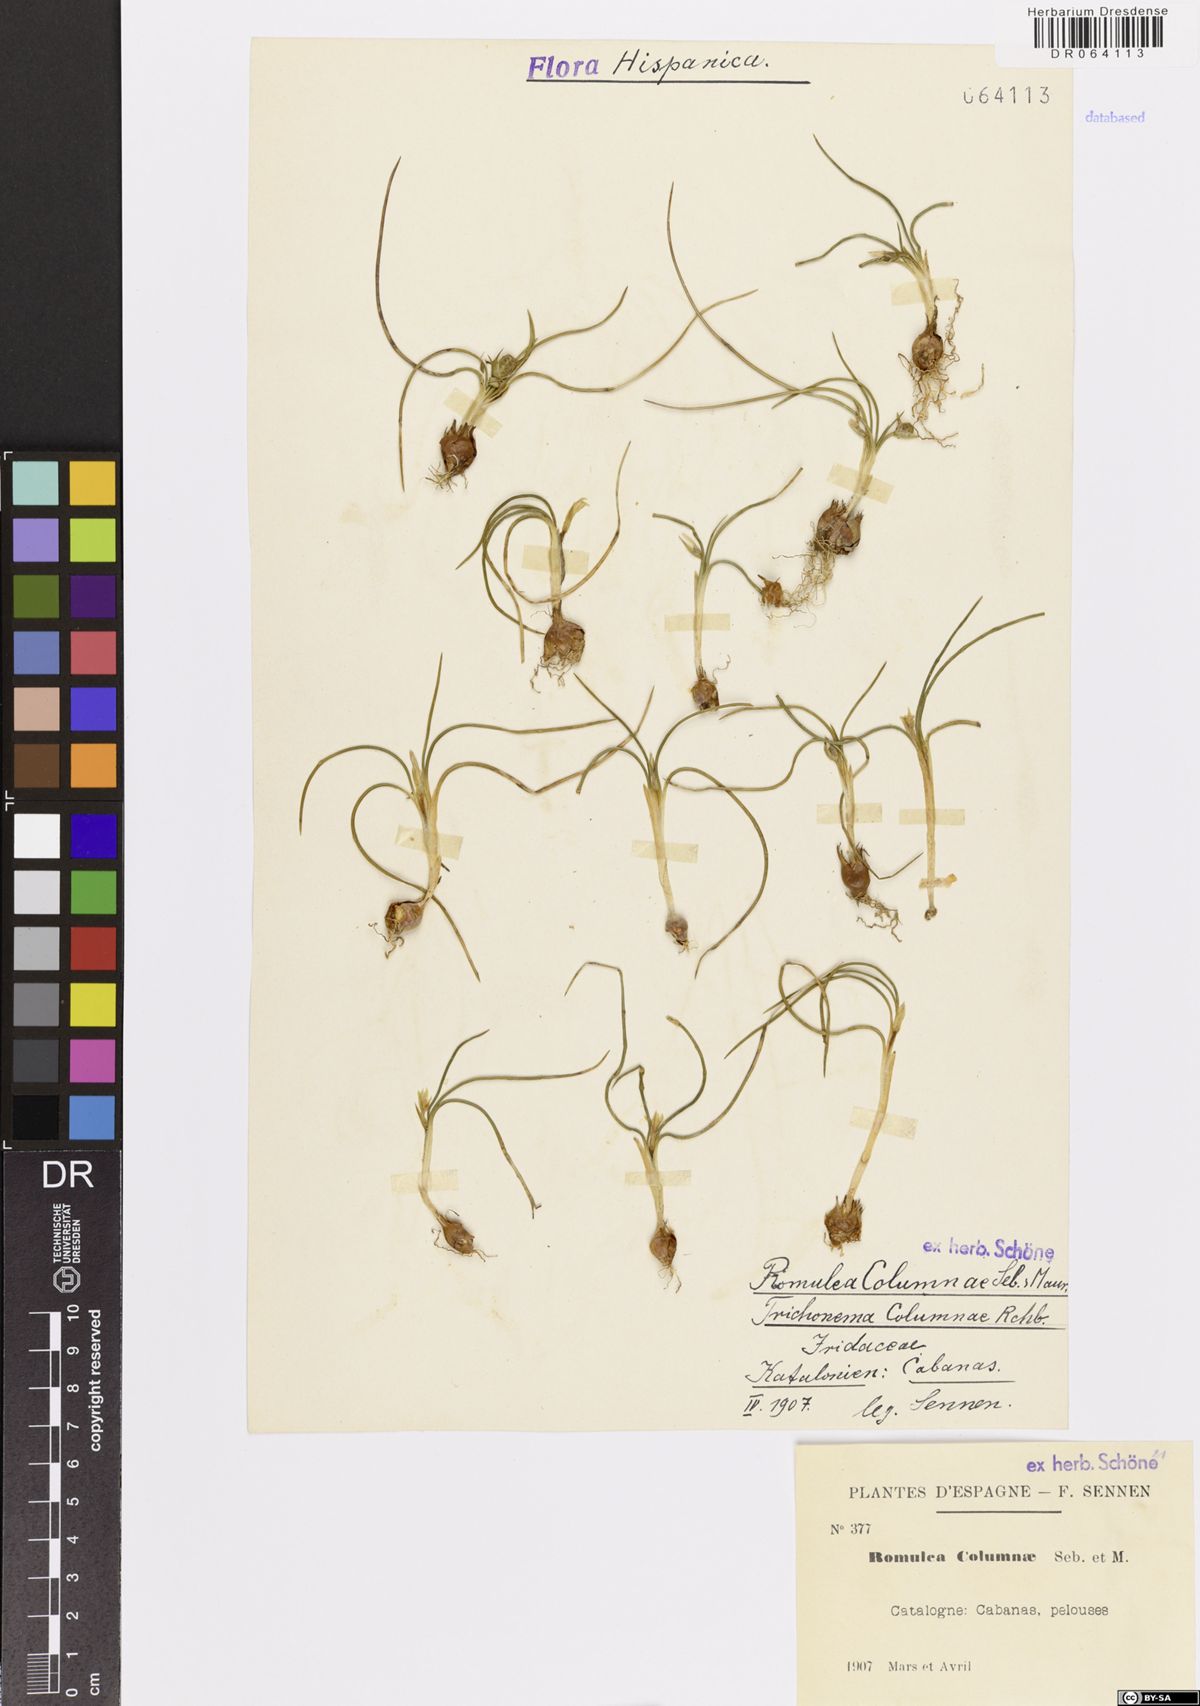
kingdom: Plantae
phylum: Tracheophyta
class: Liliopsida
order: Asparagales
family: Iridaceae
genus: Romulea
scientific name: Romulea columnae
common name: Sand-crocus
